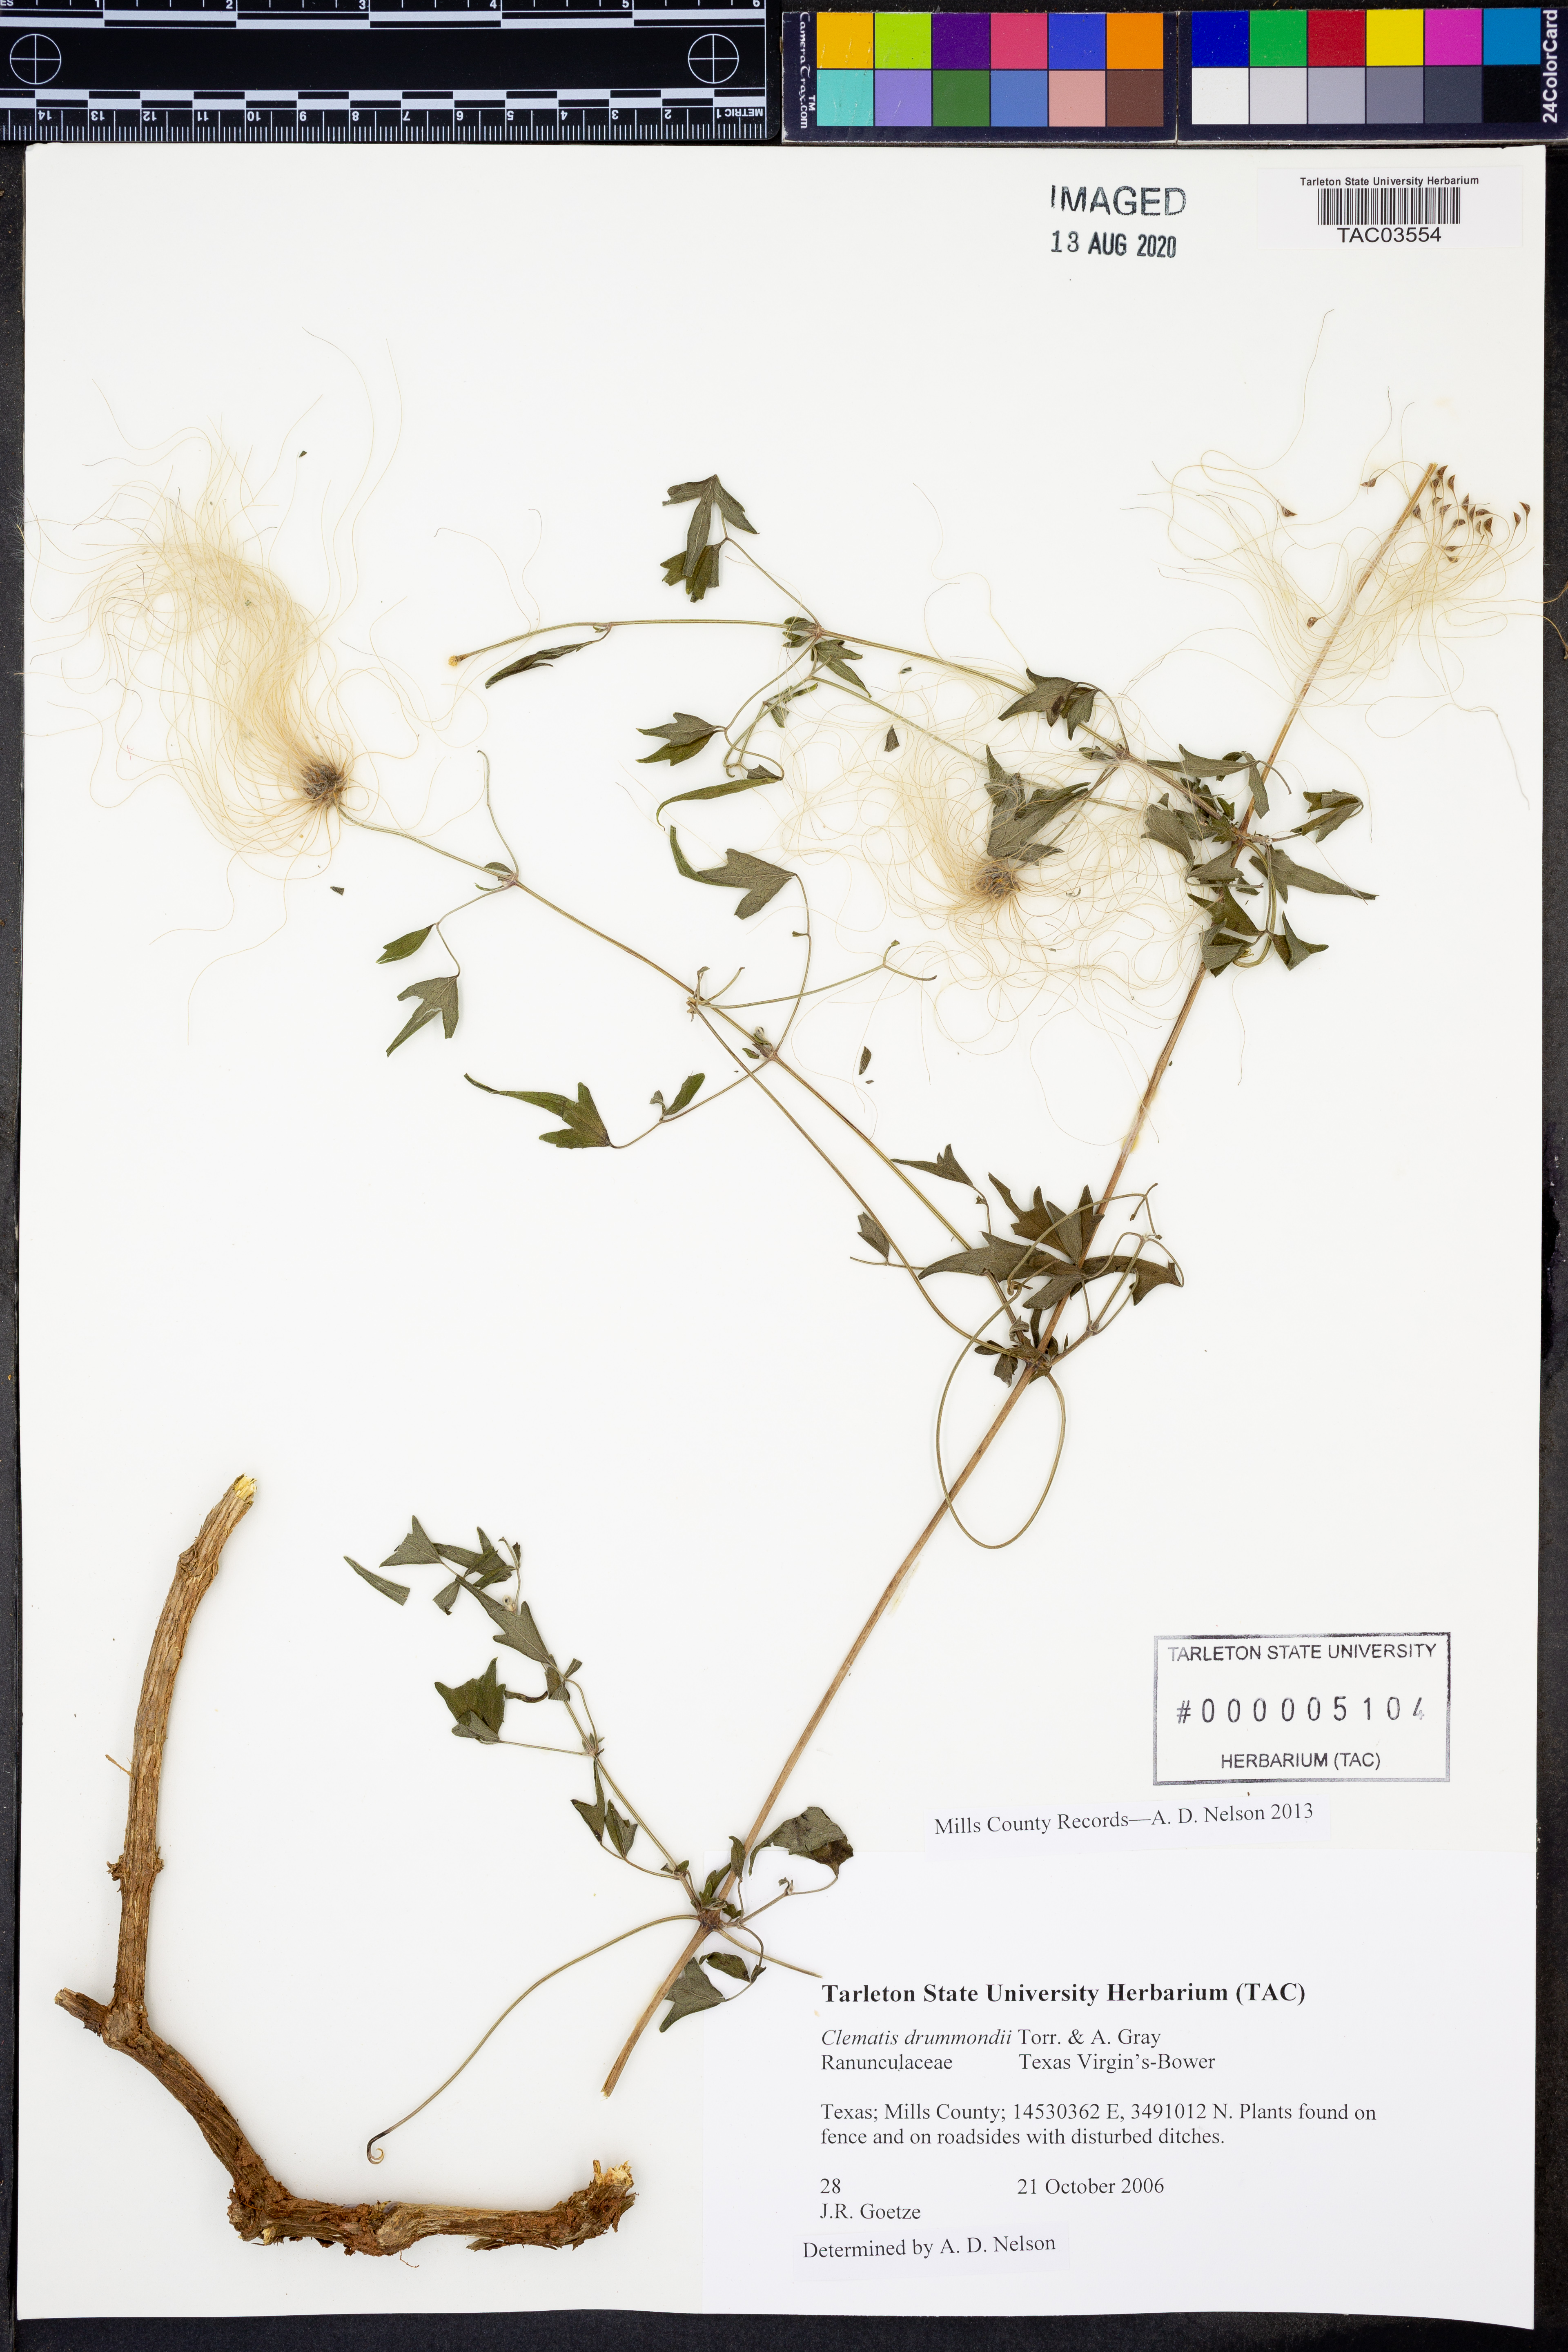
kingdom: Plantae
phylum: Tracheophyta
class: Magnoliopsida
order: Ranunculales
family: Ranunculaceae
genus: Clematis
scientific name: Clematis drummondii
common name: Texas virgin's bower
